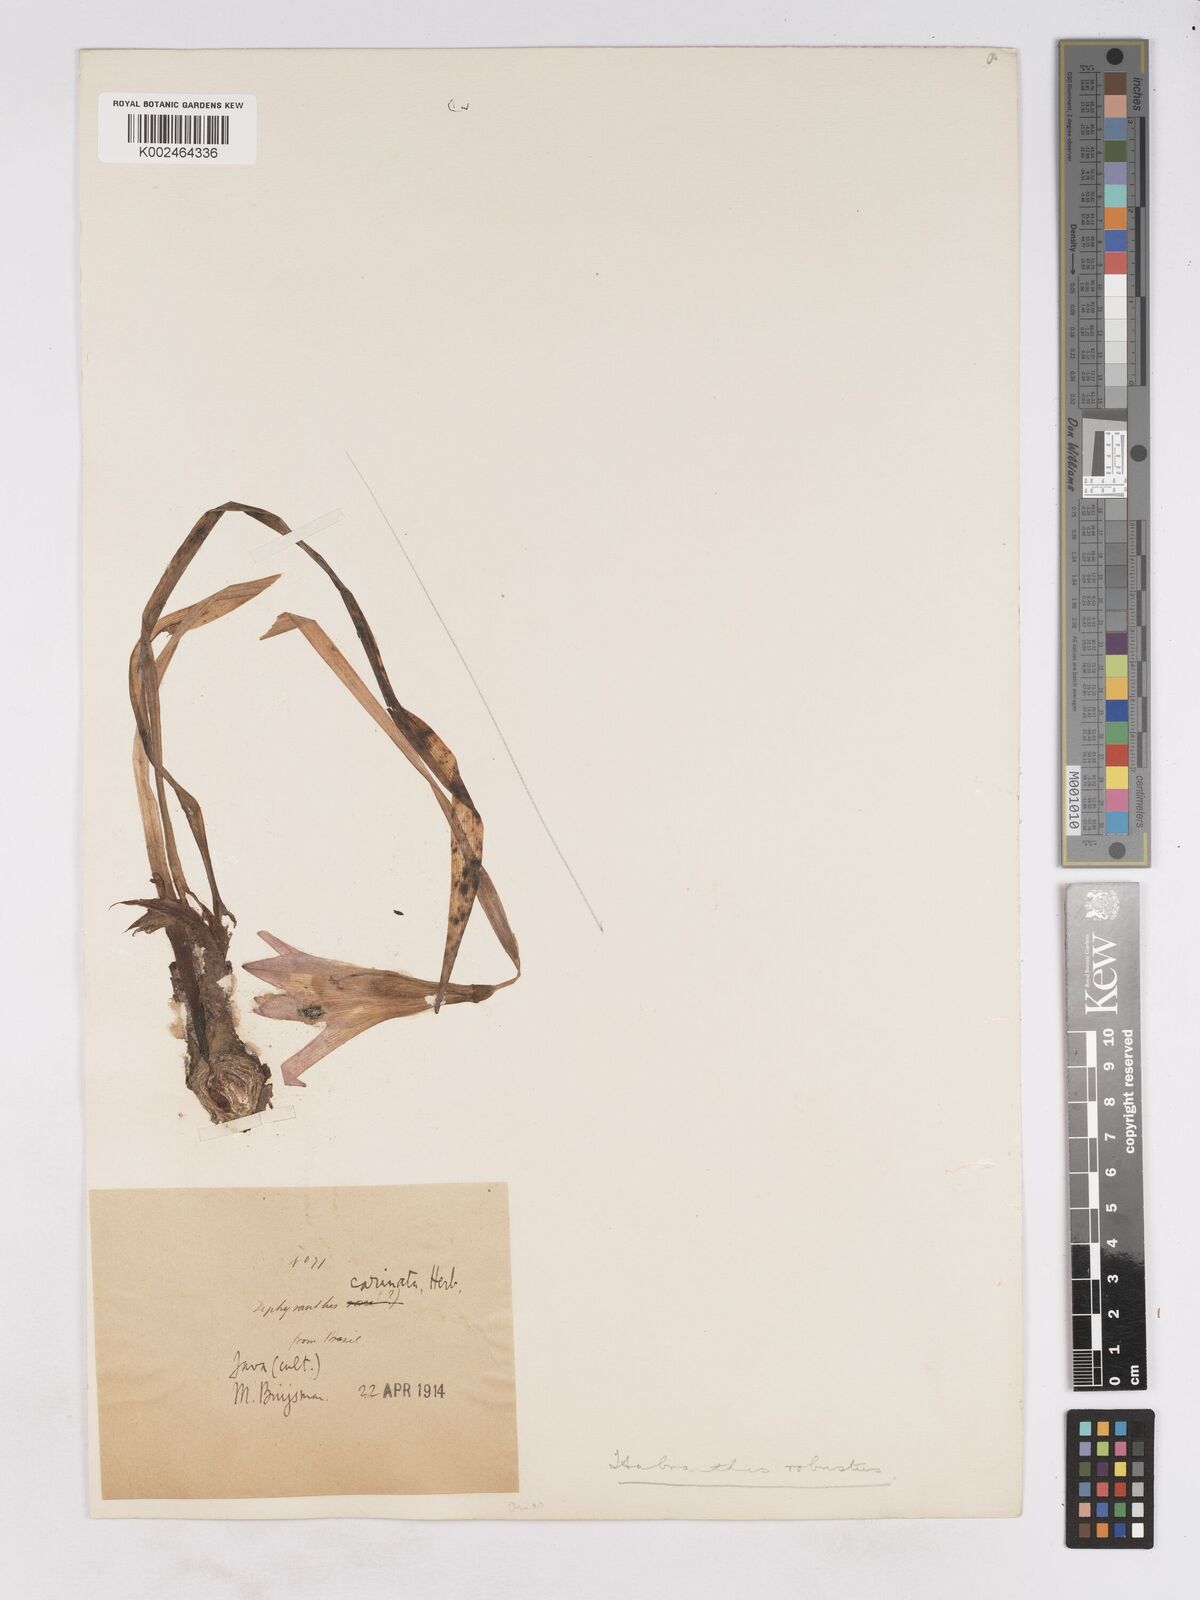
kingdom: Plantae
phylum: Tracheophyta
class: Liliopsida
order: Asparagales
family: Amaryllidaceae
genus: Zephyranthes
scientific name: Zephyranthes robusta
